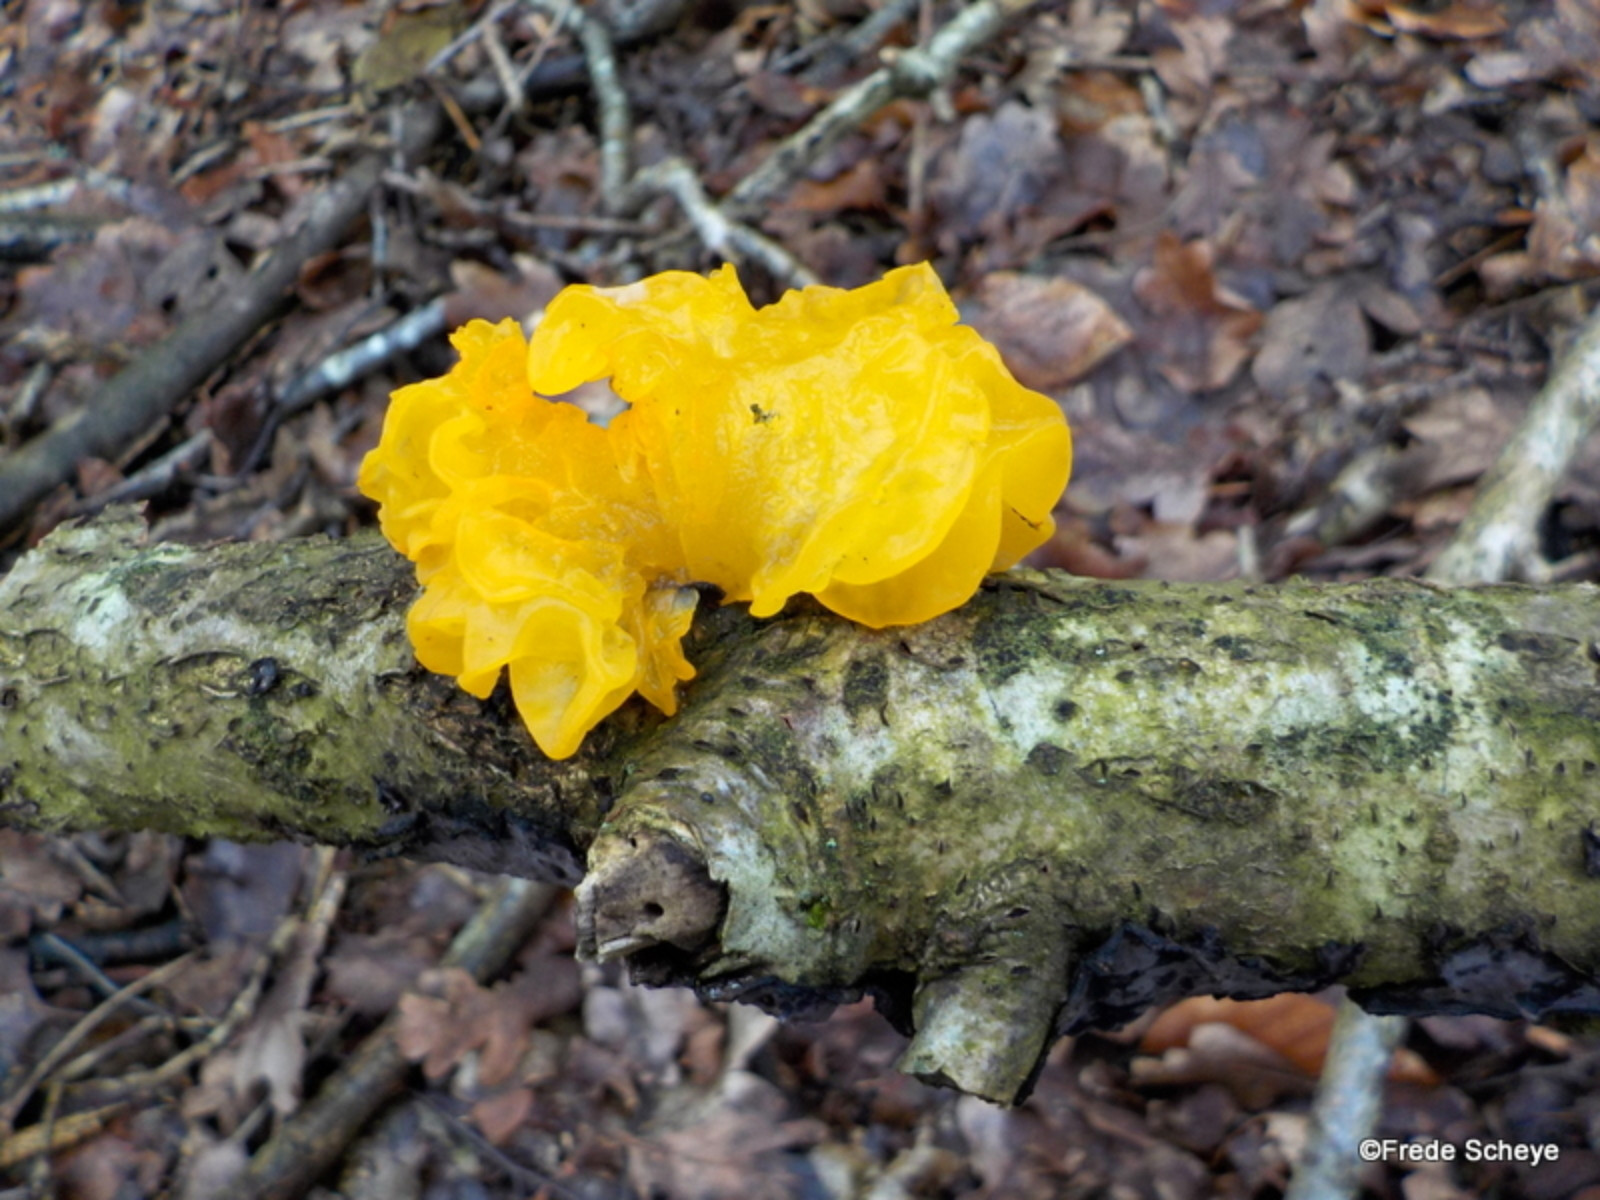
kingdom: Fungi
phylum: Basidiomycota
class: Tremellomycetes
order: Tremellales
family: Tremellaceae
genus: Tremella
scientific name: Tremella mesenterica
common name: gul bævresvamp
